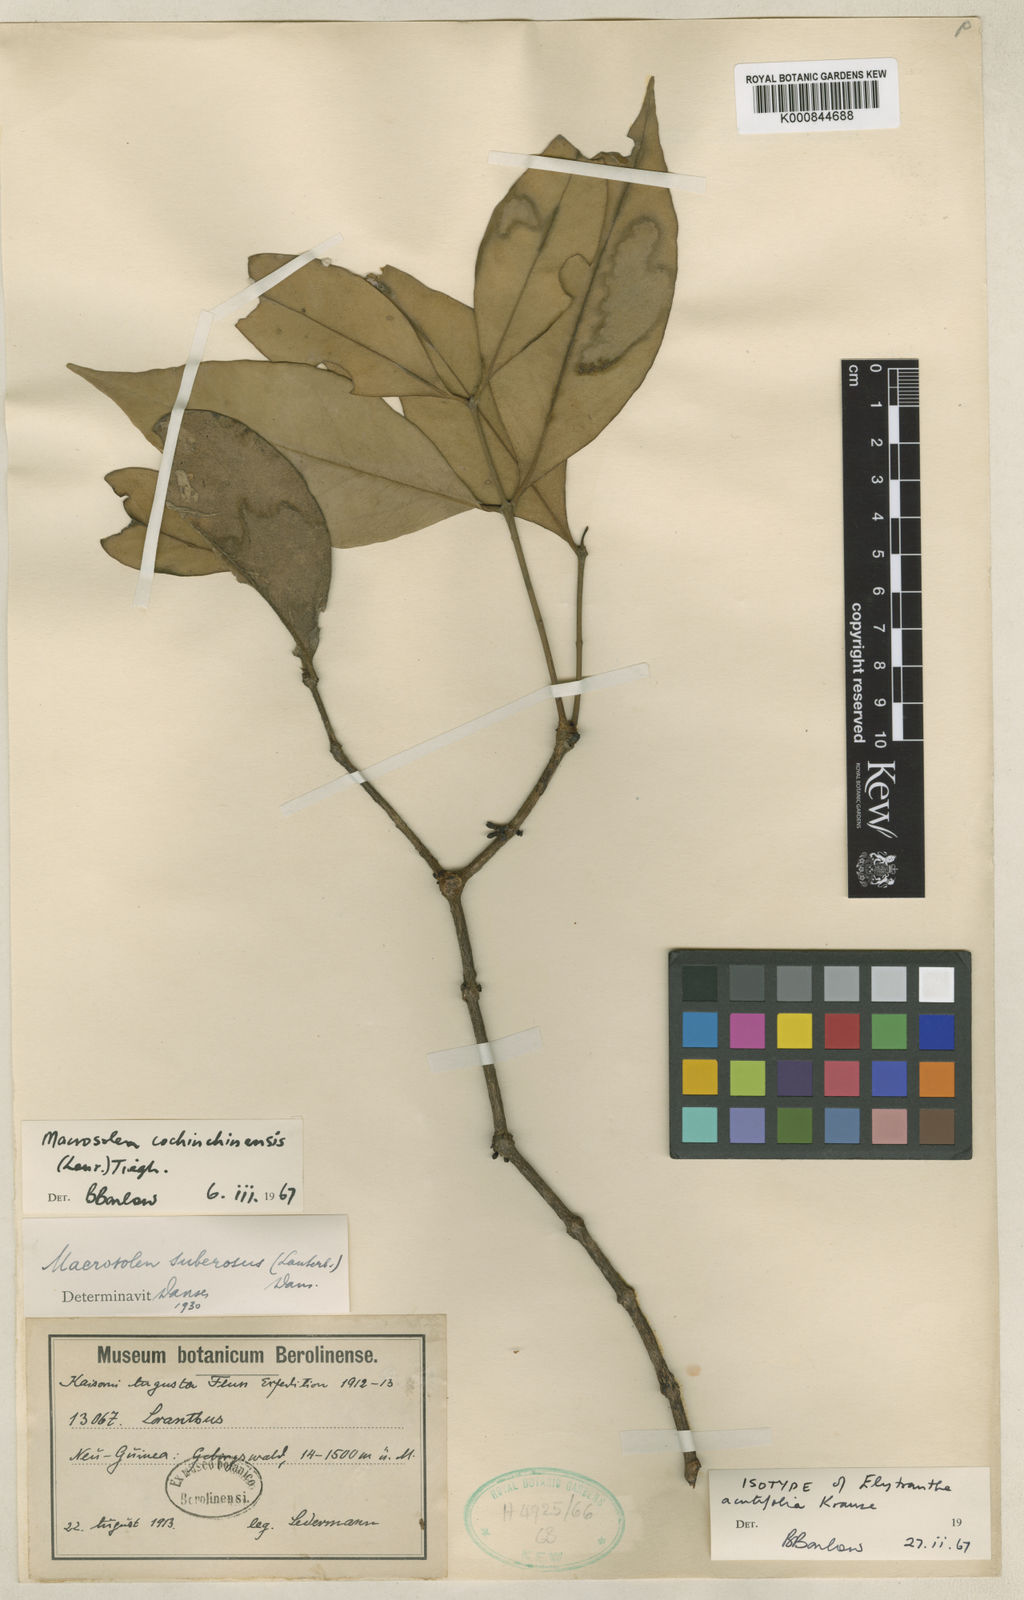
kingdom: Plantae
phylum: Tracheophyta
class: Magnoliopsida
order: Santalales
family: Loranthaceae
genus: Macrosolen
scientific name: Macrosolen cochinchinensis
